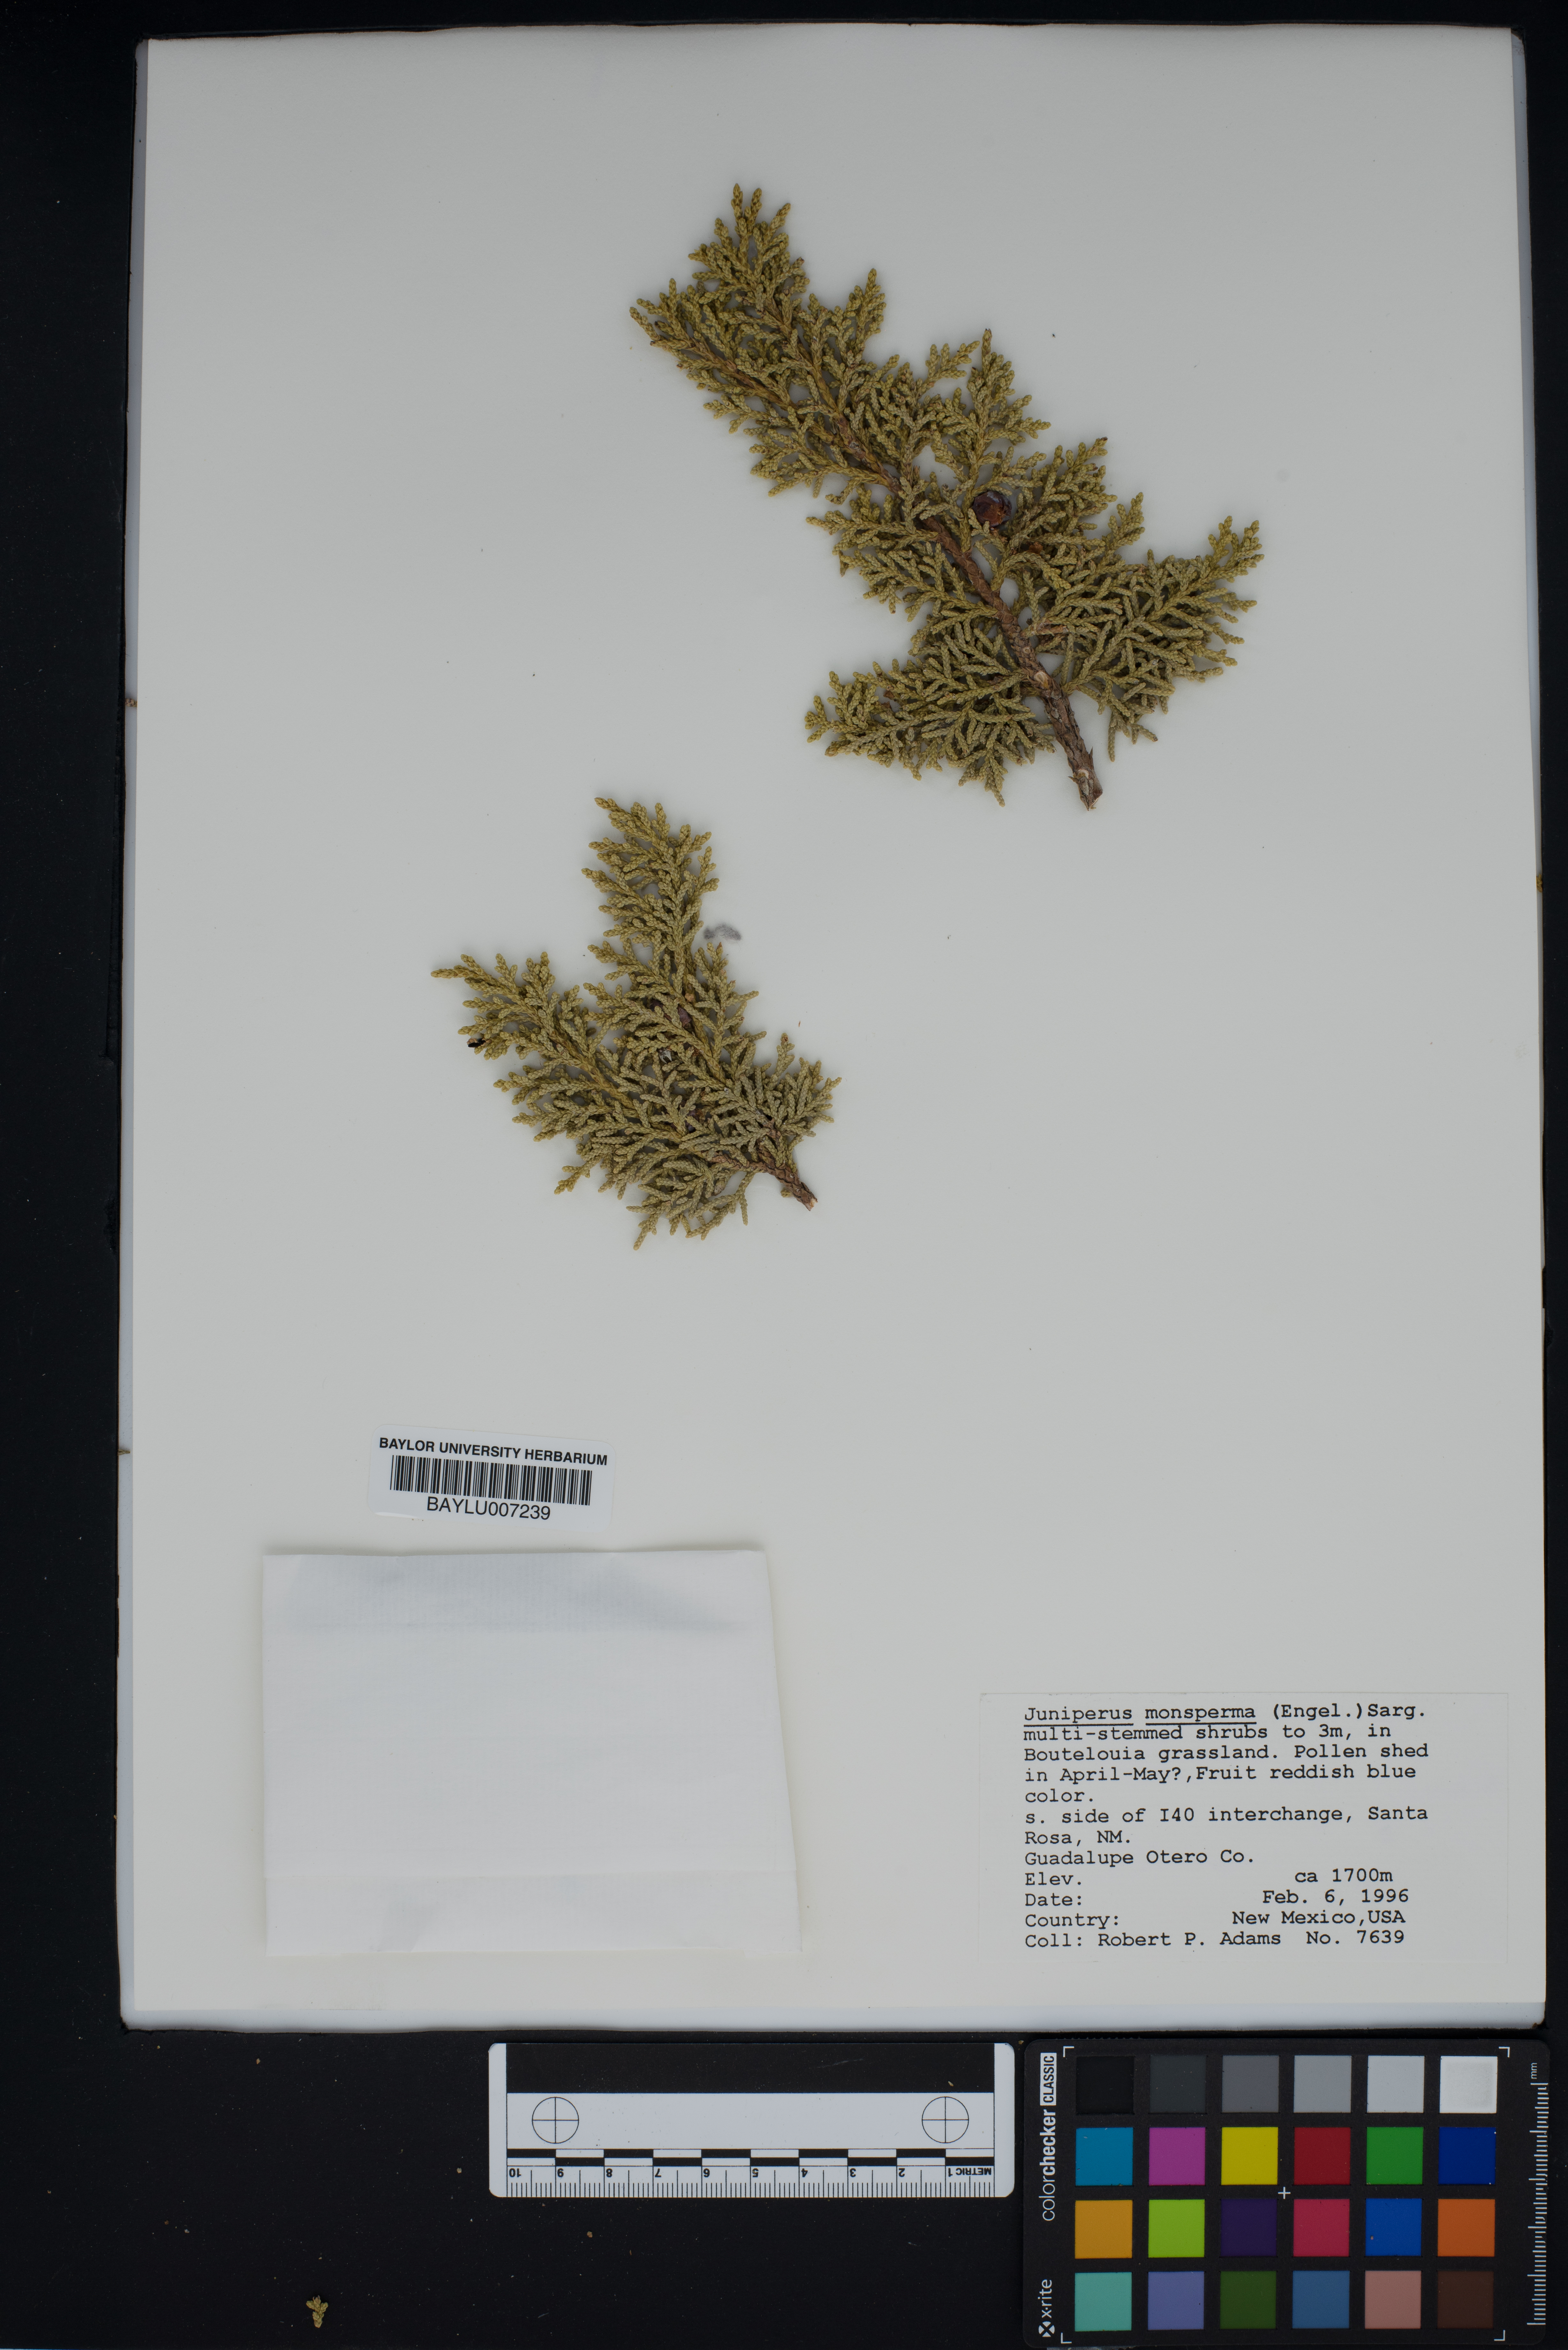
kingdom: Plantae
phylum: Tracheophyta
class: Pinopsida
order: Pinales
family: Cupressaceae
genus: Juniperus
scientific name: Juniperus monosperma
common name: One-seed juniper
